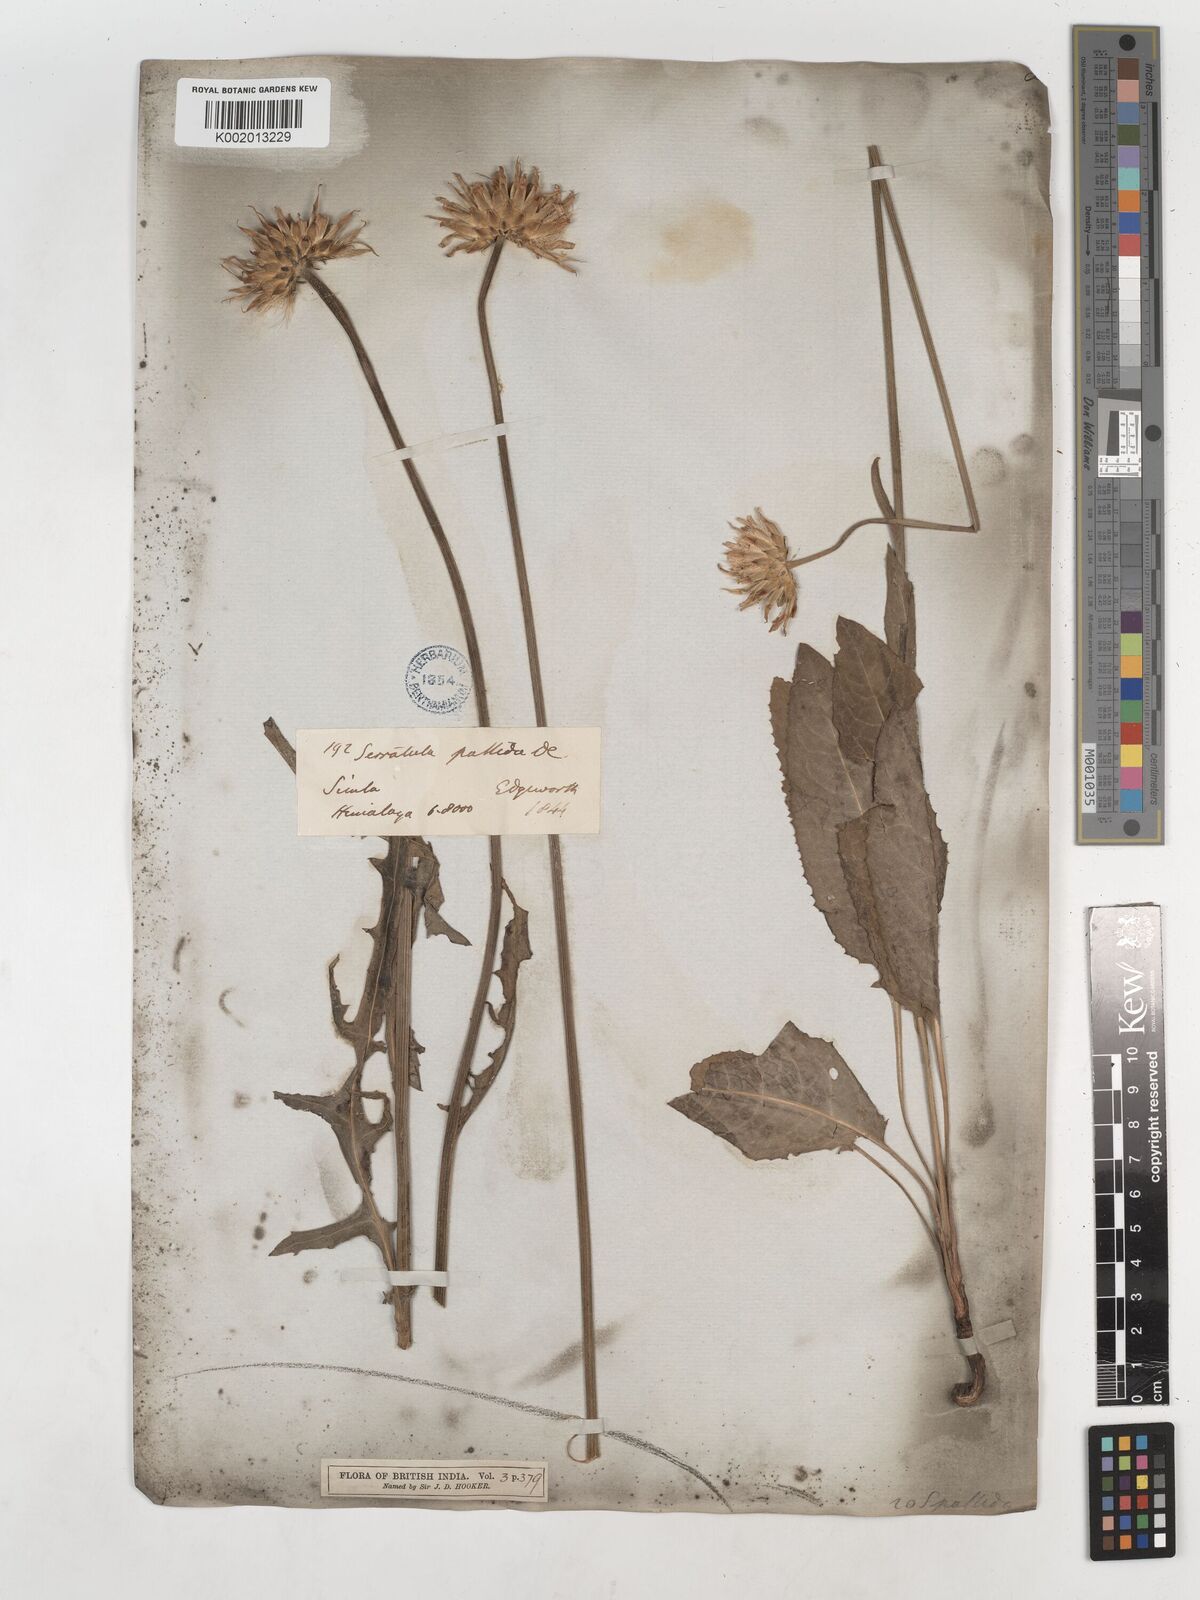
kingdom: Plantae
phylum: Tracheophyta
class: Magnoliopsida
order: Asterales
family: Asteraceae
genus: Klasea
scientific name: Klasea pallida
